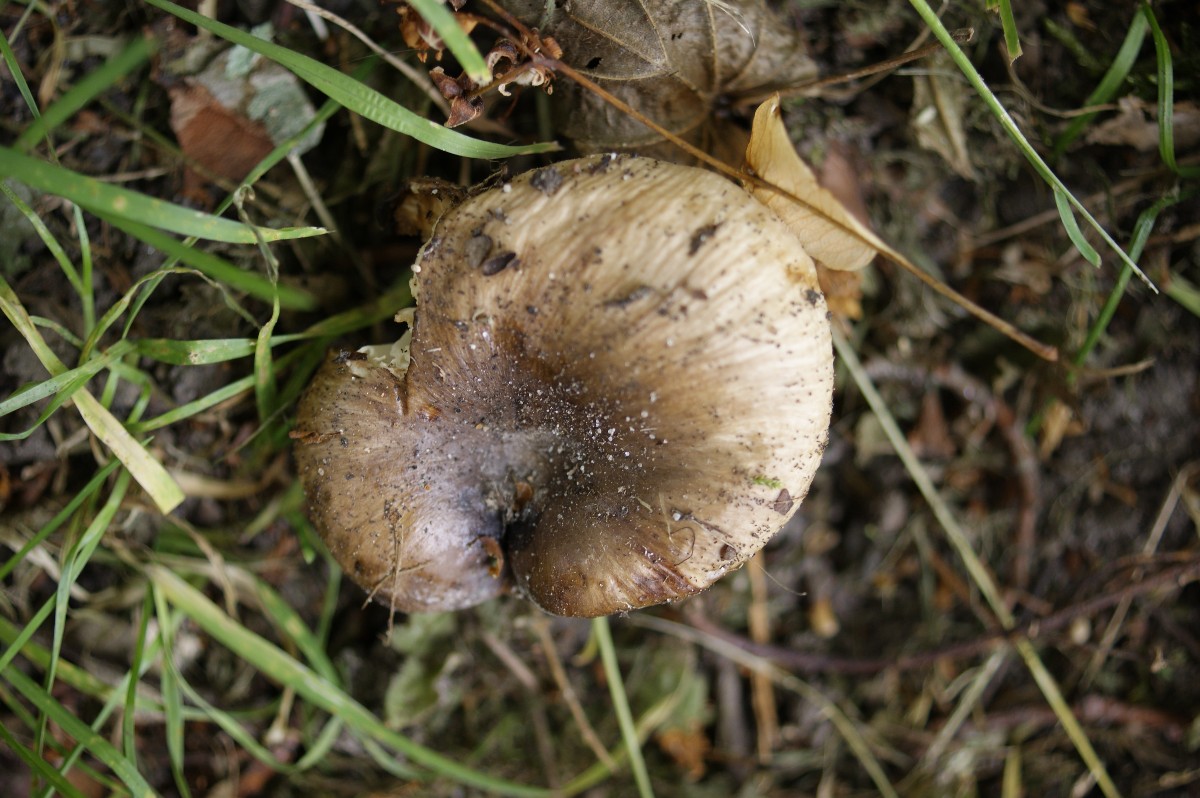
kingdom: Fungi
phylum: Basidiomycota
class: Agaricomycetes
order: Russulales
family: Russulaceae
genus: Russula
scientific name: Russula recondita
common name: mild kam-skørhat
